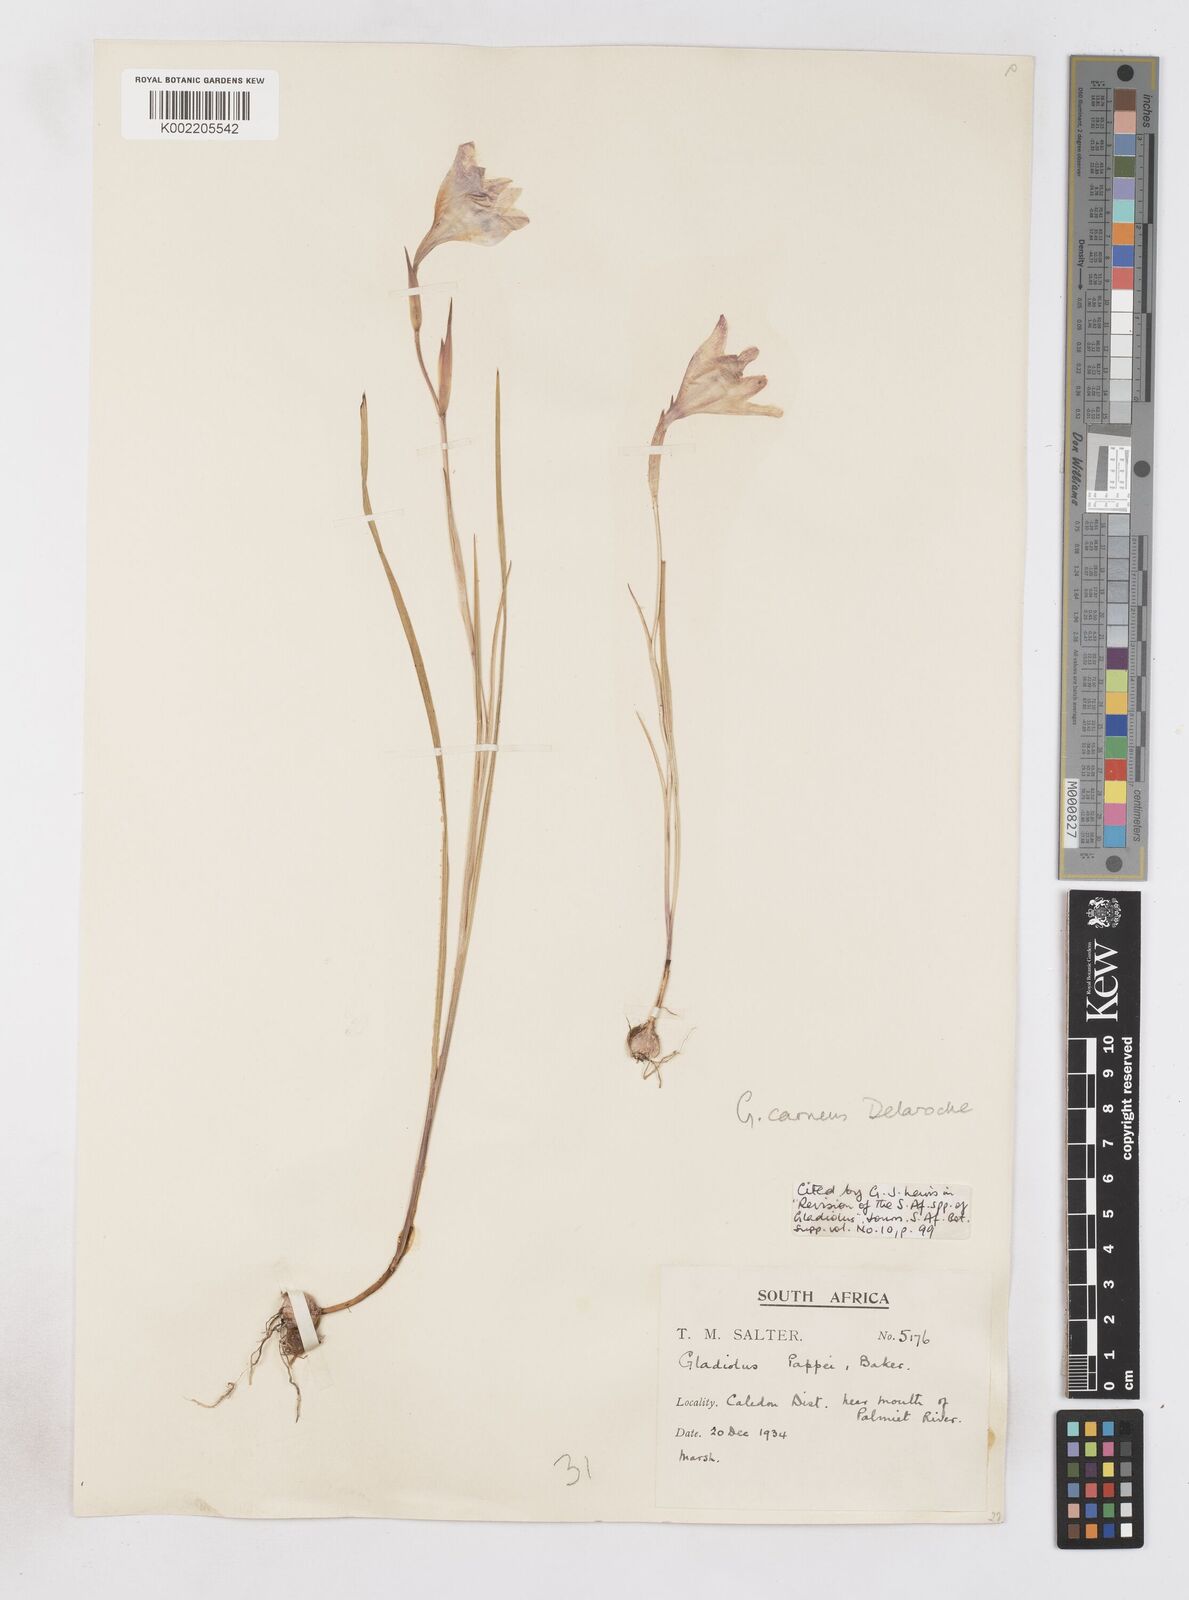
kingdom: Plantae
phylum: Tracheophyta
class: Liliopsida
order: Asparagales
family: Iridaceae
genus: Gladiolus
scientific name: Gladiolus carneus
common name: Painted-lady
